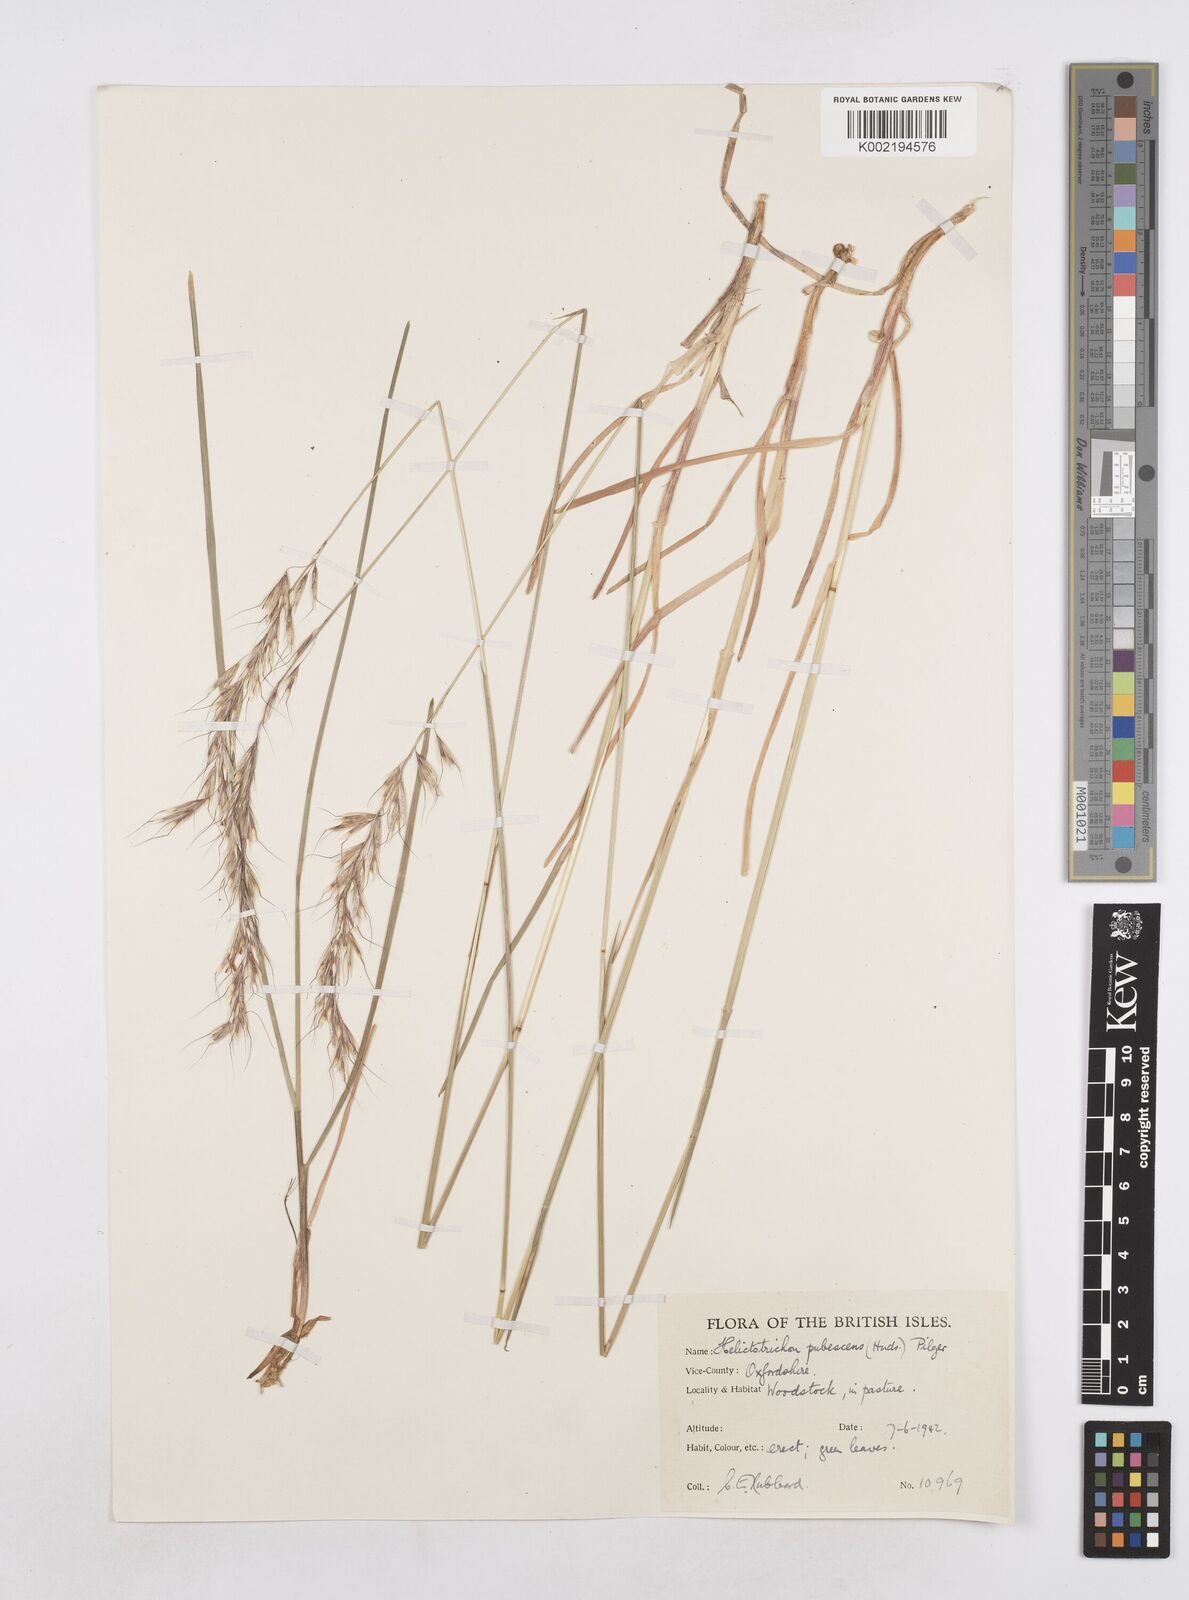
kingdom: Plantae
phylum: Tracheophyta
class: Liliopsida
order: Poales
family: Poaceae
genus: Avenula
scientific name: Avenula pubescens
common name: Downy alpine oatgrass
